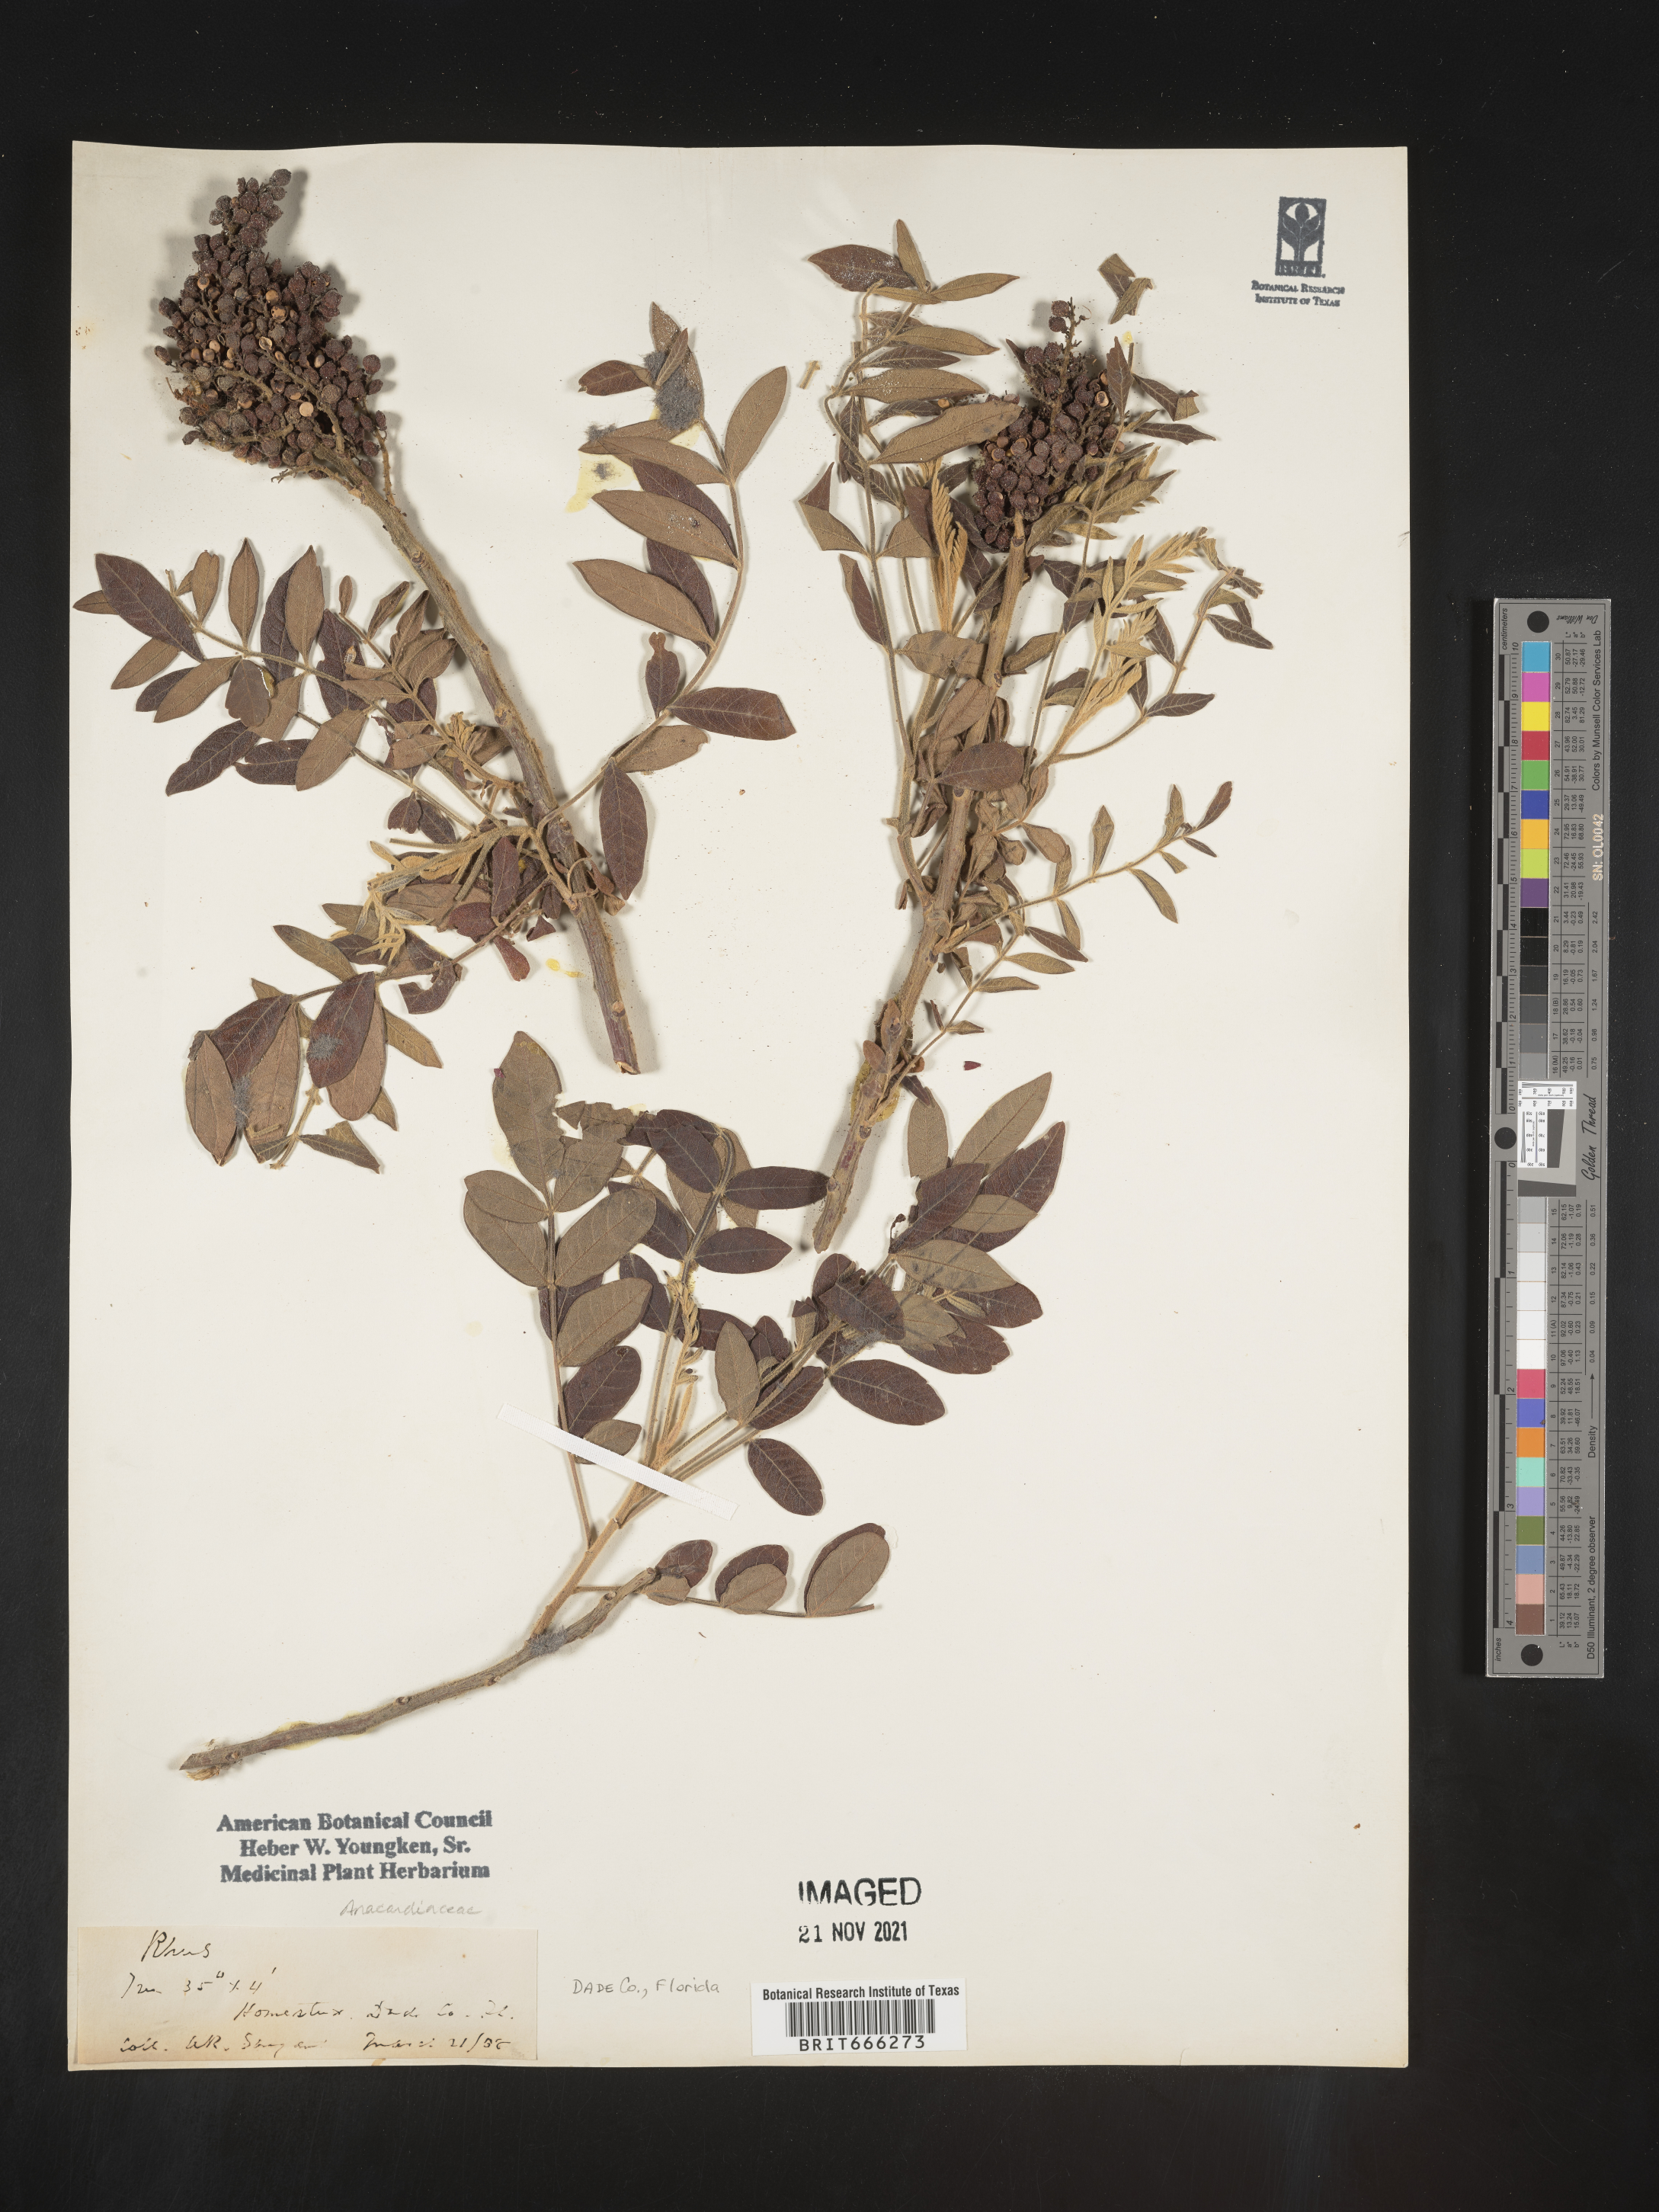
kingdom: Plantae
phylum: Tracheophyta
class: Magnoliopsida
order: Sapindales
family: Anacardiaceae
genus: Rhus
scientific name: Rhus
